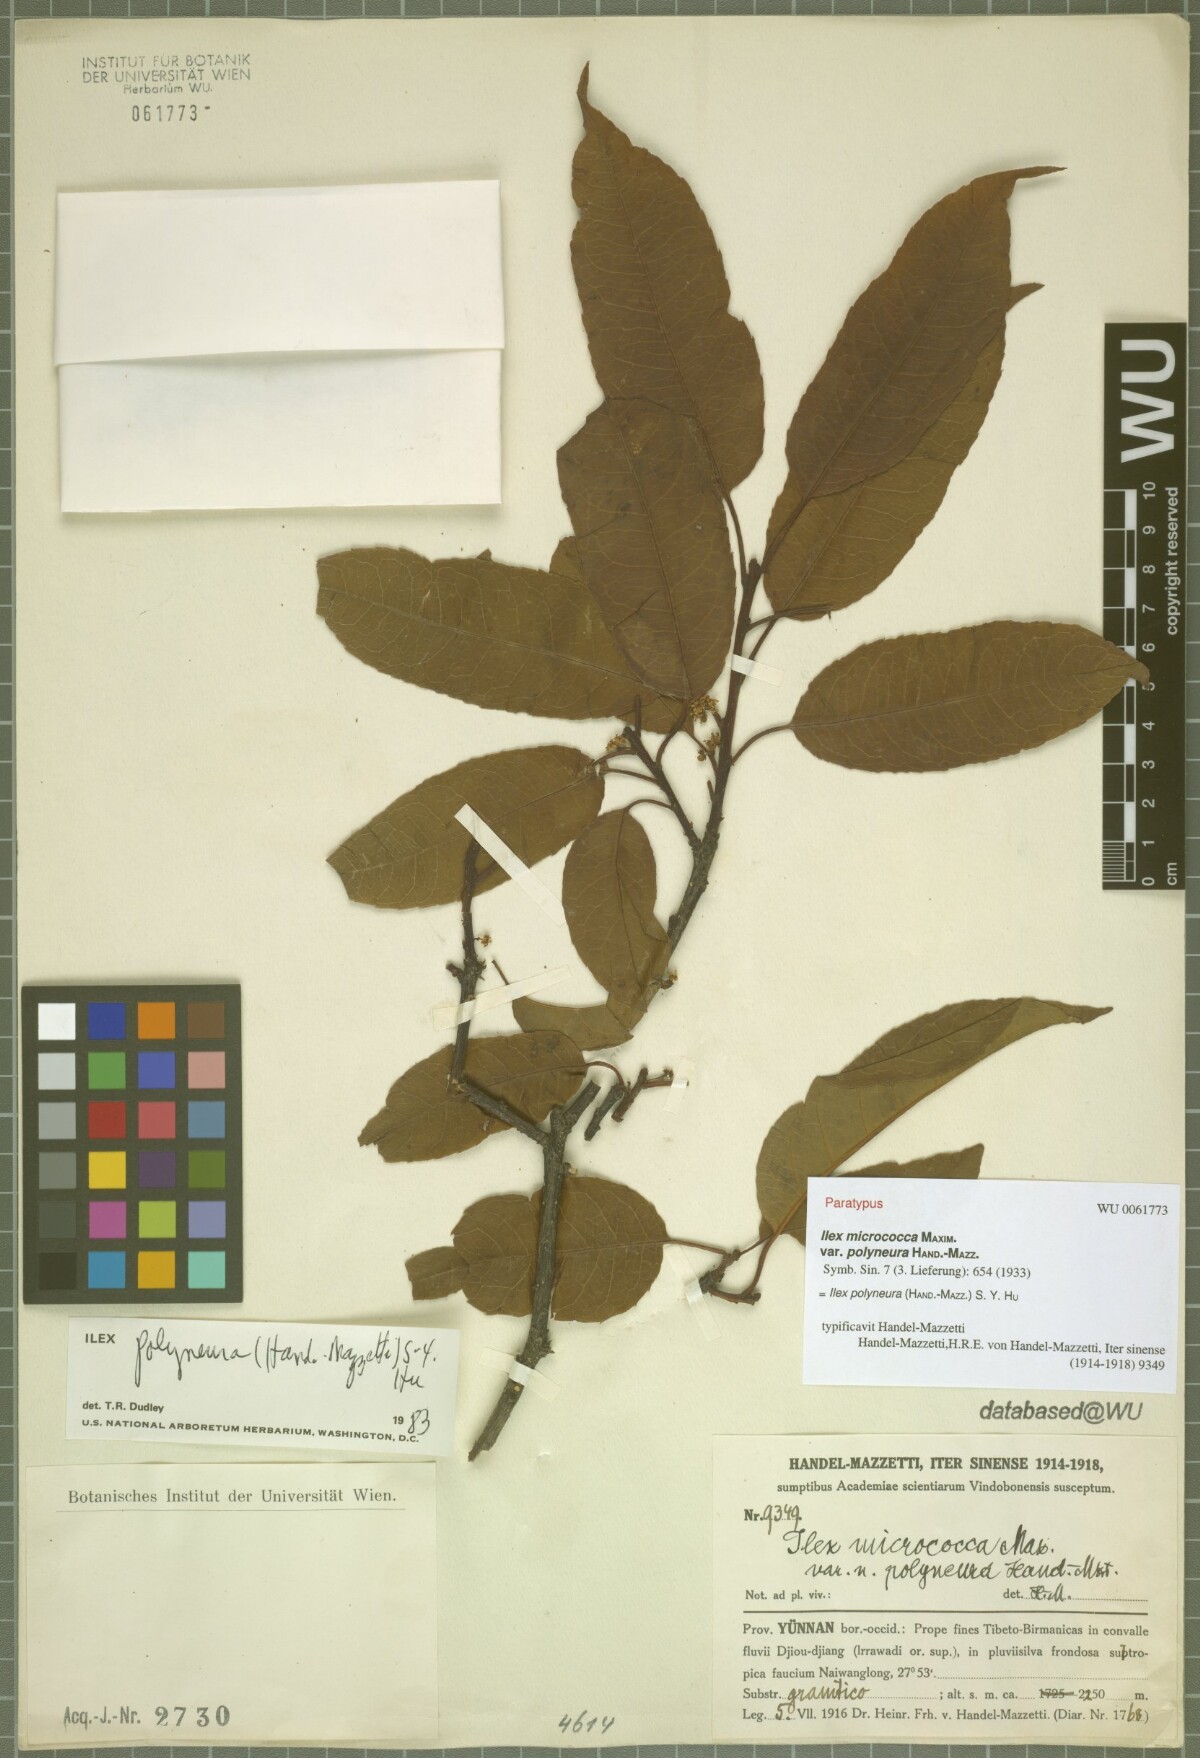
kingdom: Plantae
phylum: Tracheophyta
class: Magnoliopsida
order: Aquifoliales
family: Aquifoliaceae
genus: Ilex
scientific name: Ilex micrococca
